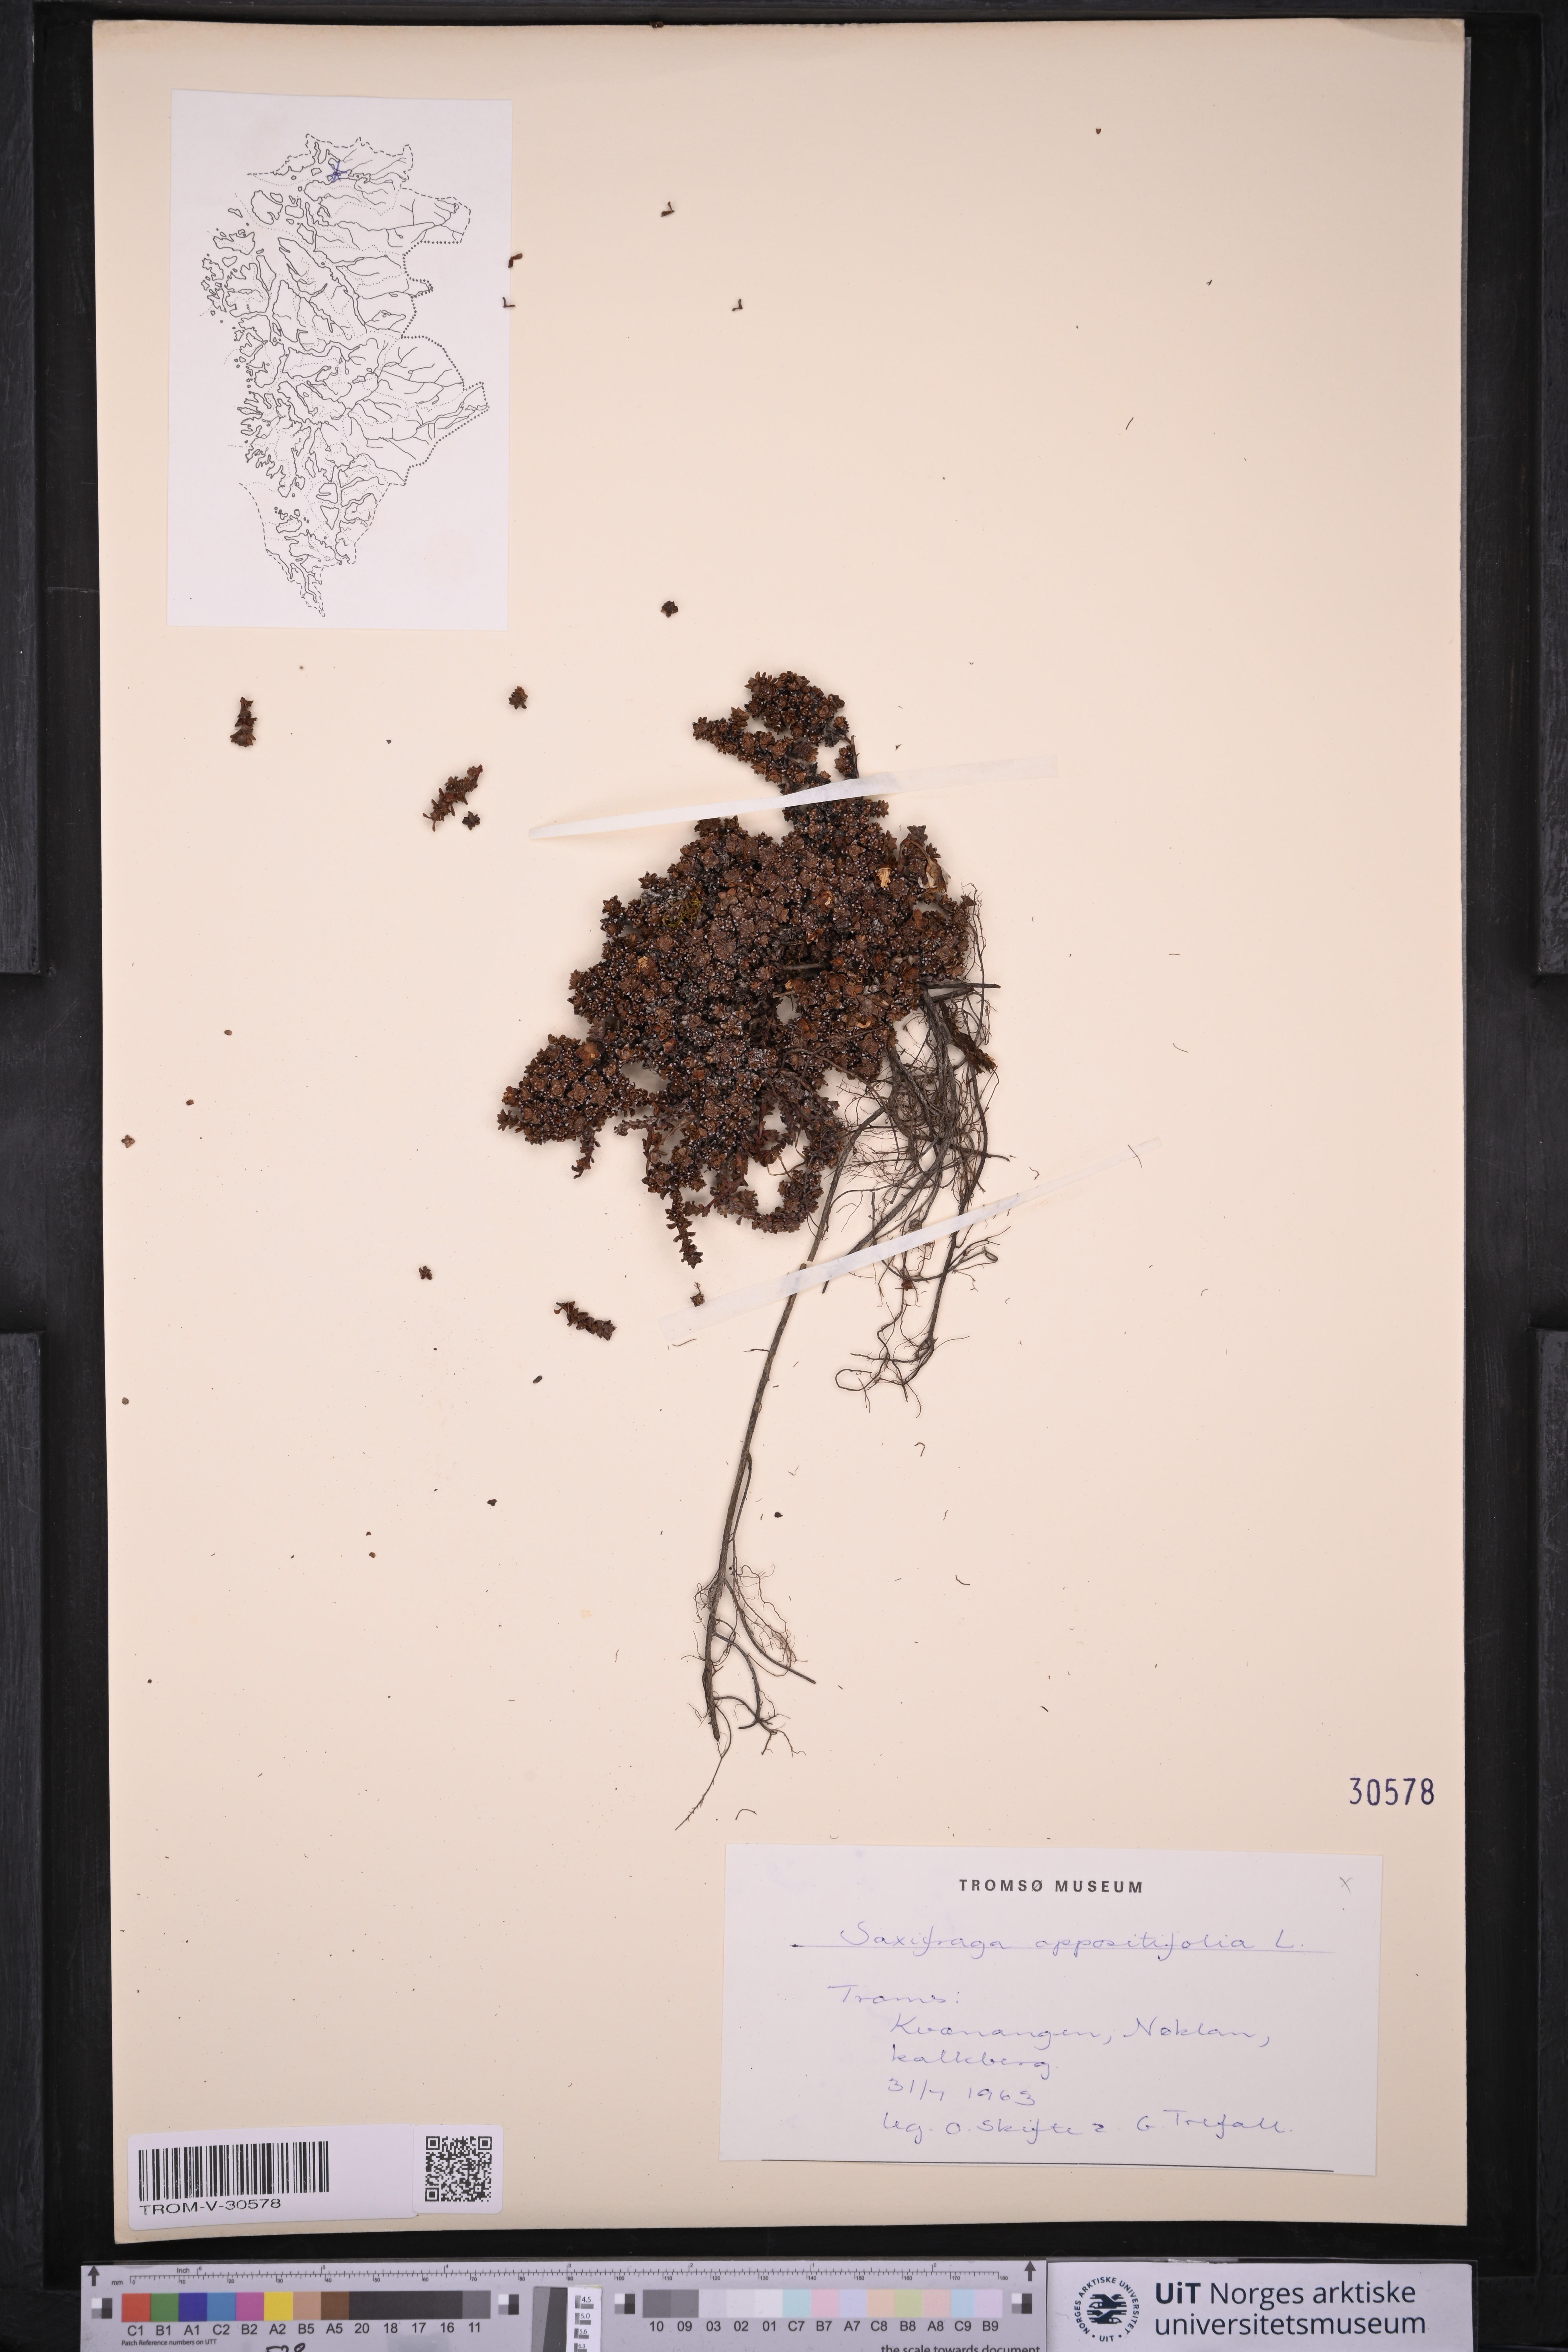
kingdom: Plantae
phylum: Tracheophyta
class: Magnoliopsida
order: Saxifragales
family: Saxifragaceae
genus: Saxifraga
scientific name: Saxifraga oppositifolia
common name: Purple saxifrage
